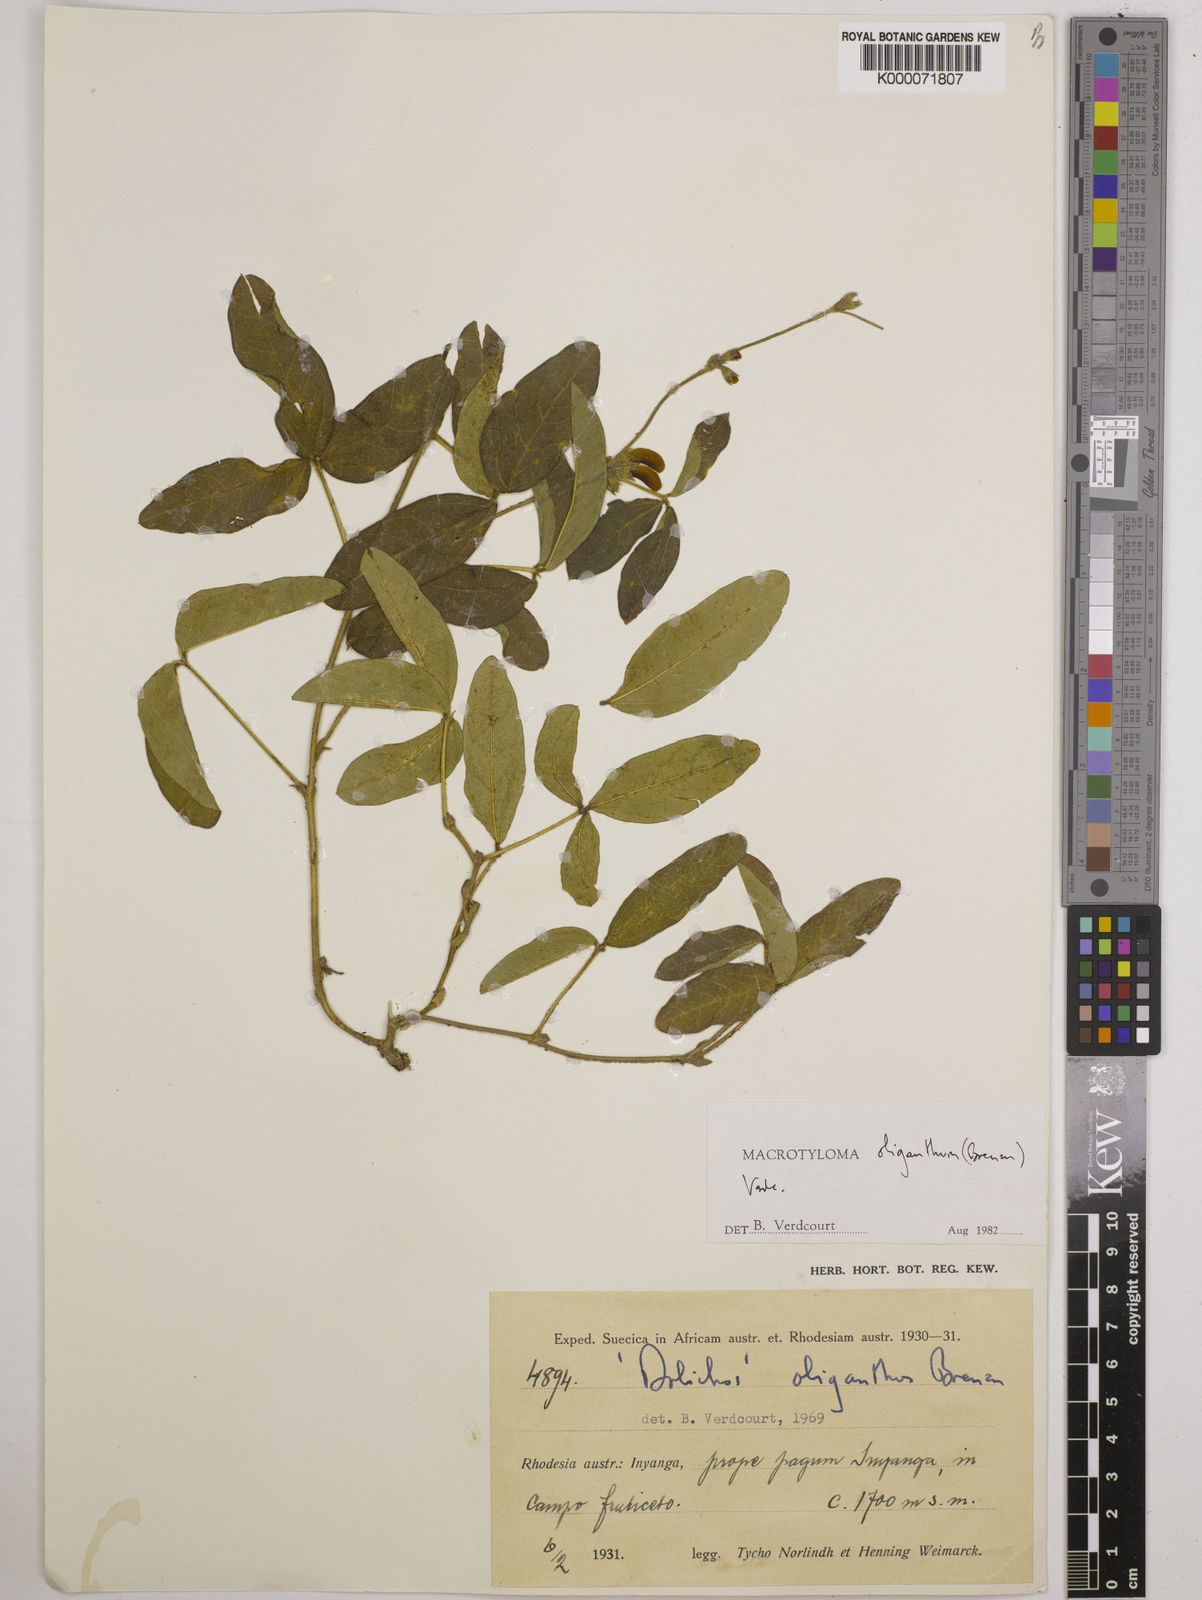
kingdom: Plantae
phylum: Tracheophyta
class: Magnoliopsida
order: Fabales
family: Fabaceae
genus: Macrotyloma
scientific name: Macrotyloma oliganthum
